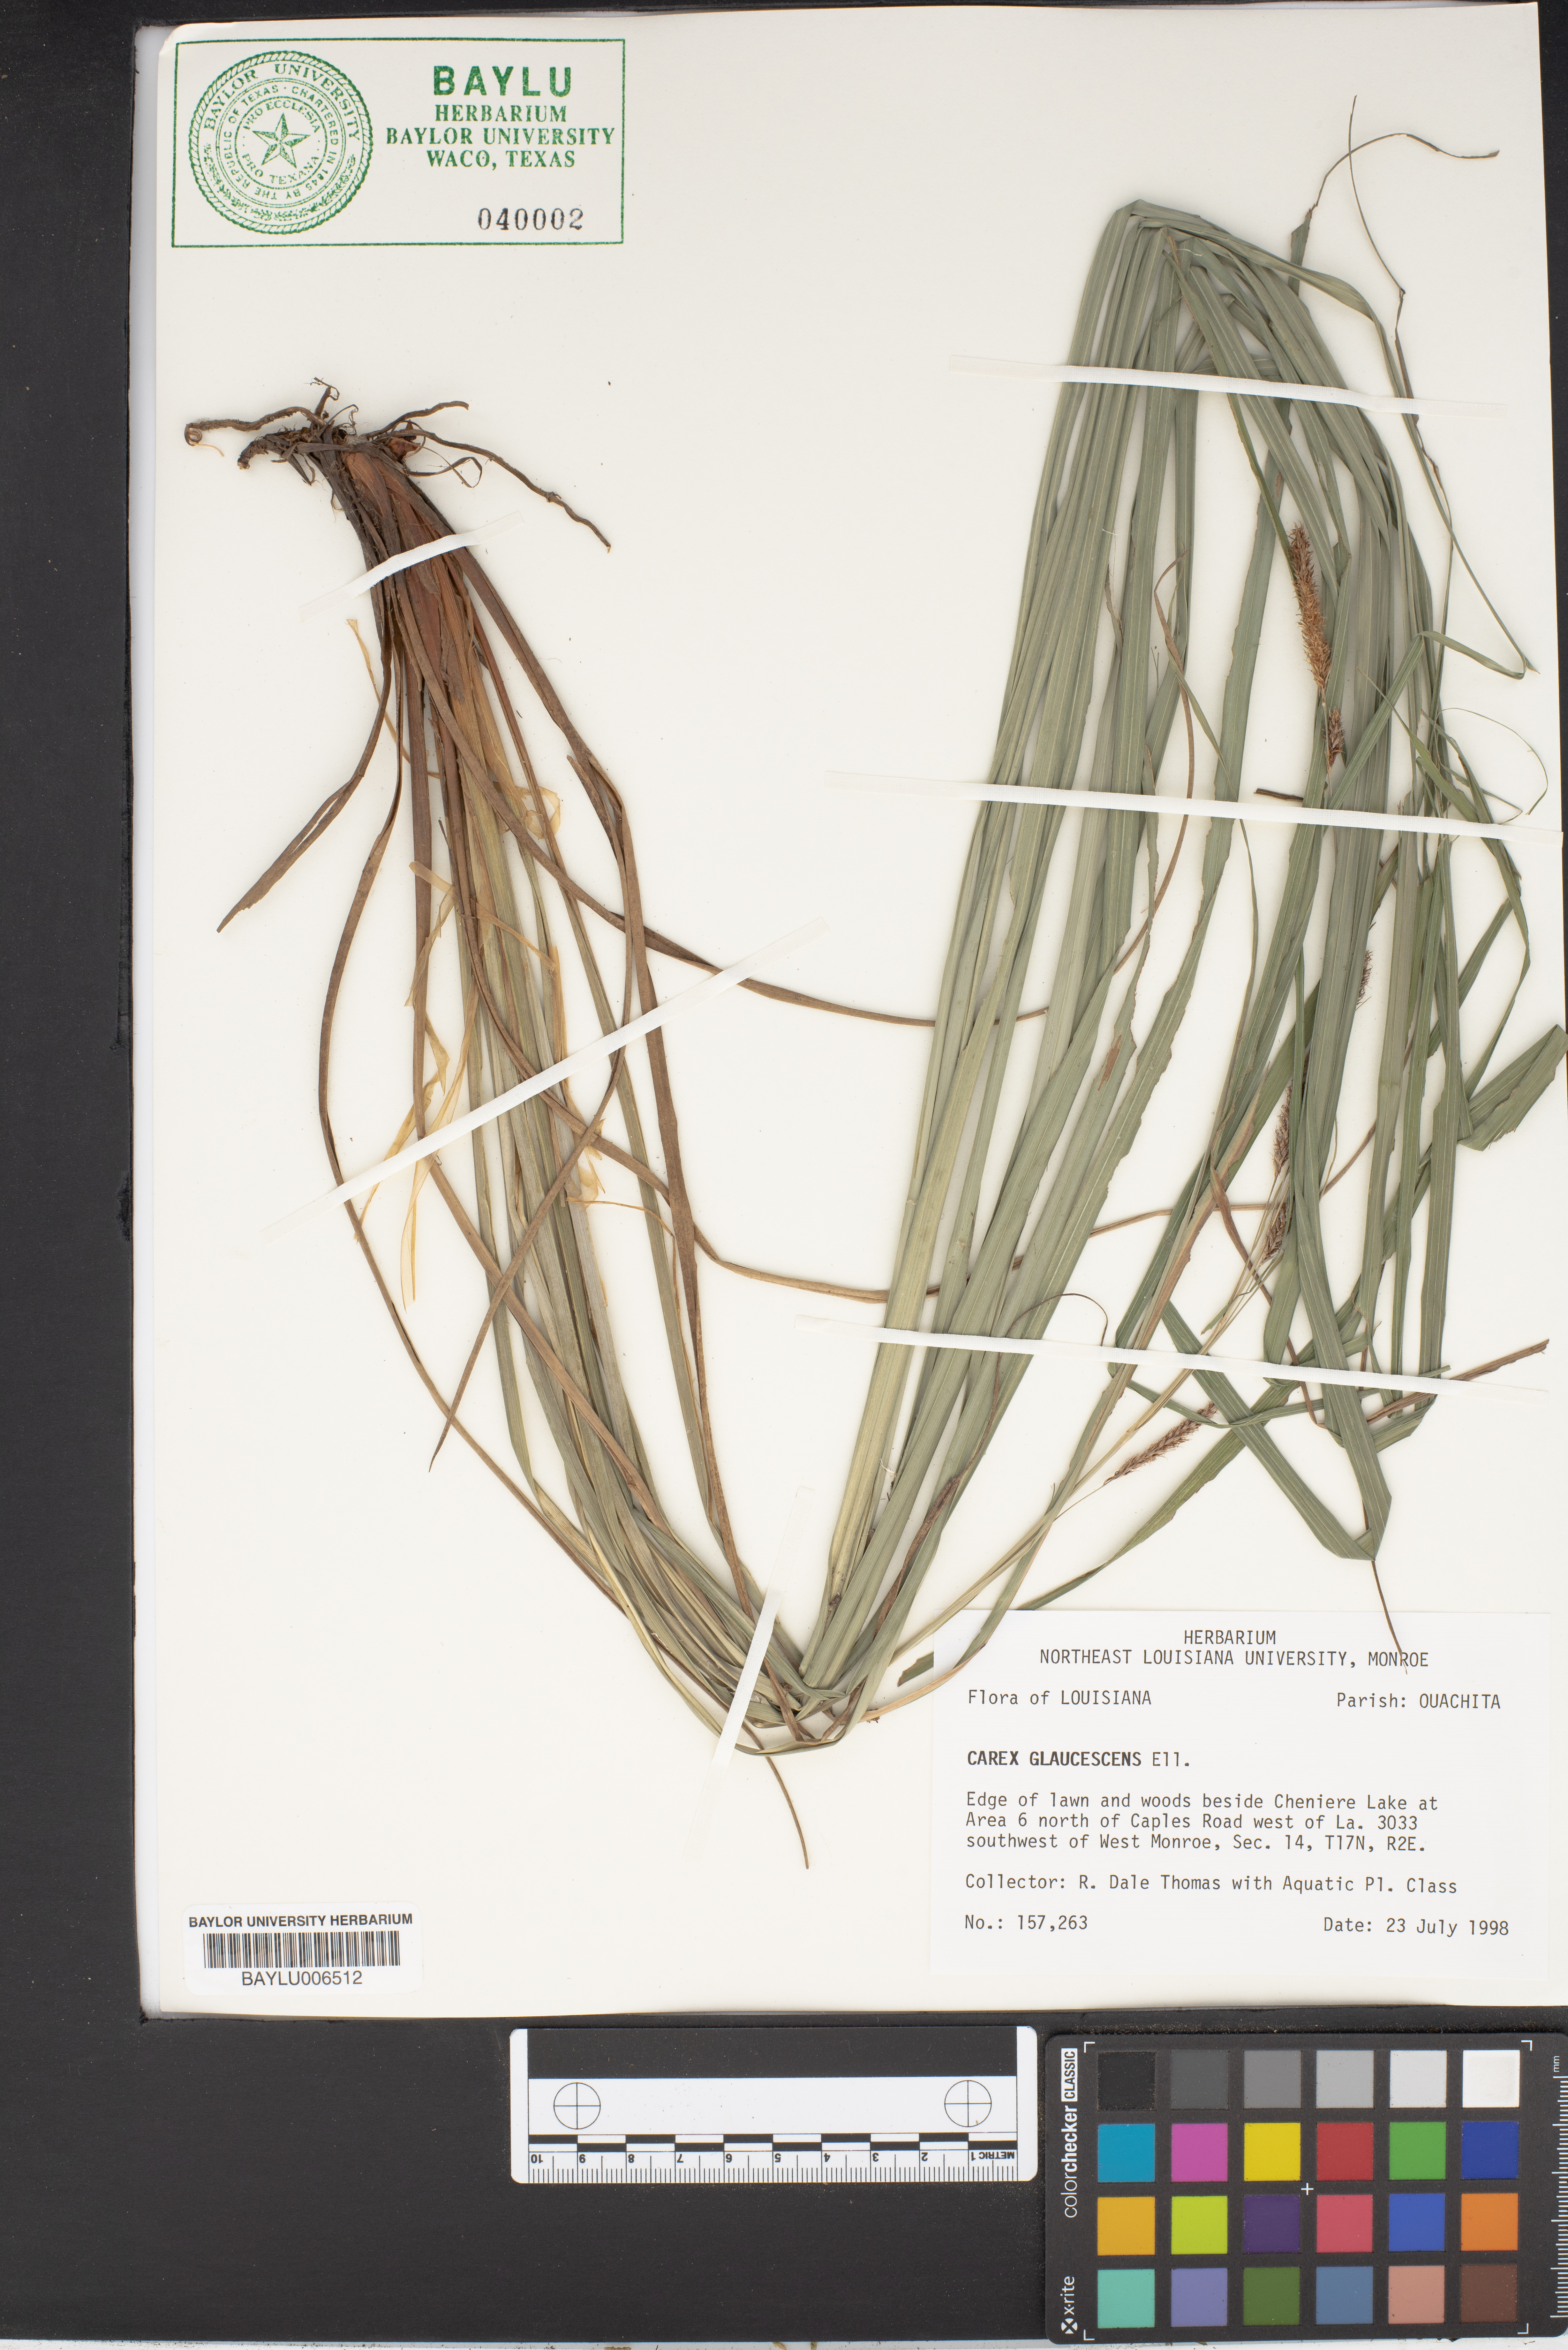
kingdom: Plantae
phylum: Tracheophyta
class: Liliopsida
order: Poales
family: Cyperaceae
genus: Carex
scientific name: Carex glaucescens
